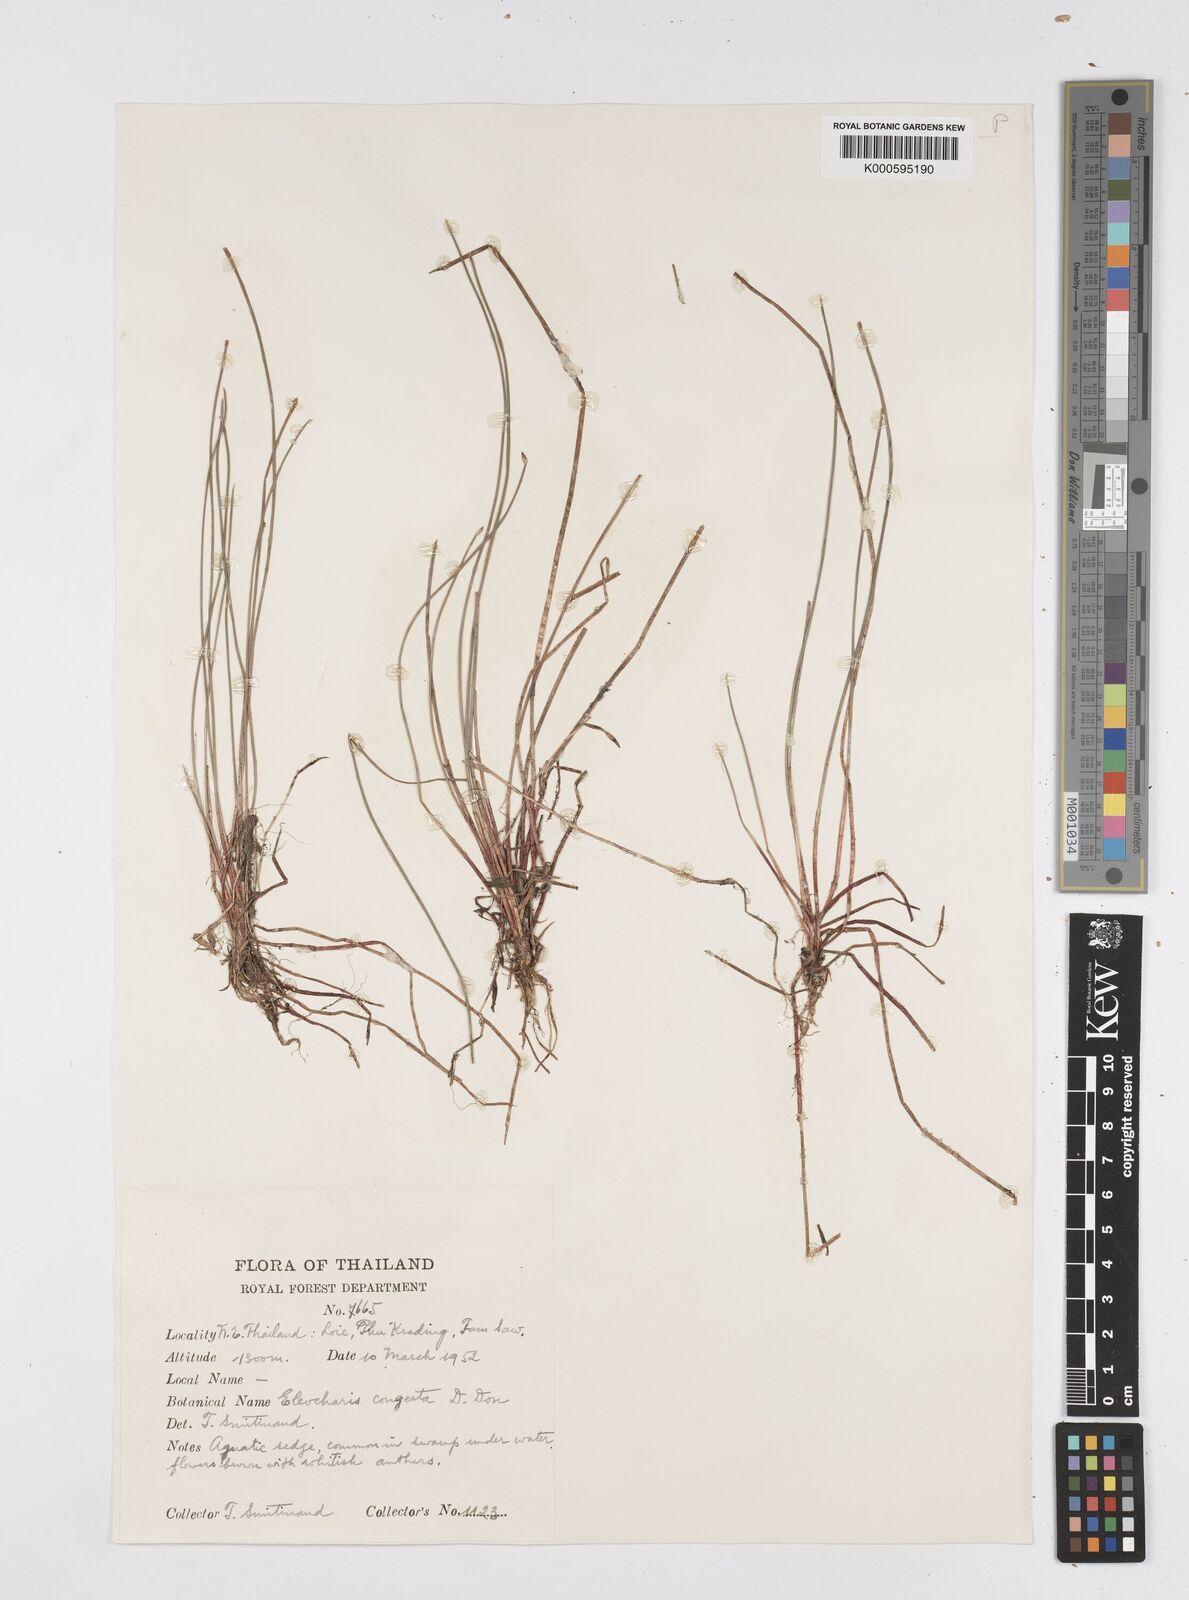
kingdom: Plantae
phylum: Tracheophyta
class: Liliopsida
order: Poales
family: Cyperaceae
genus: Eleocharis
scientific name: Eleocharis congesta
